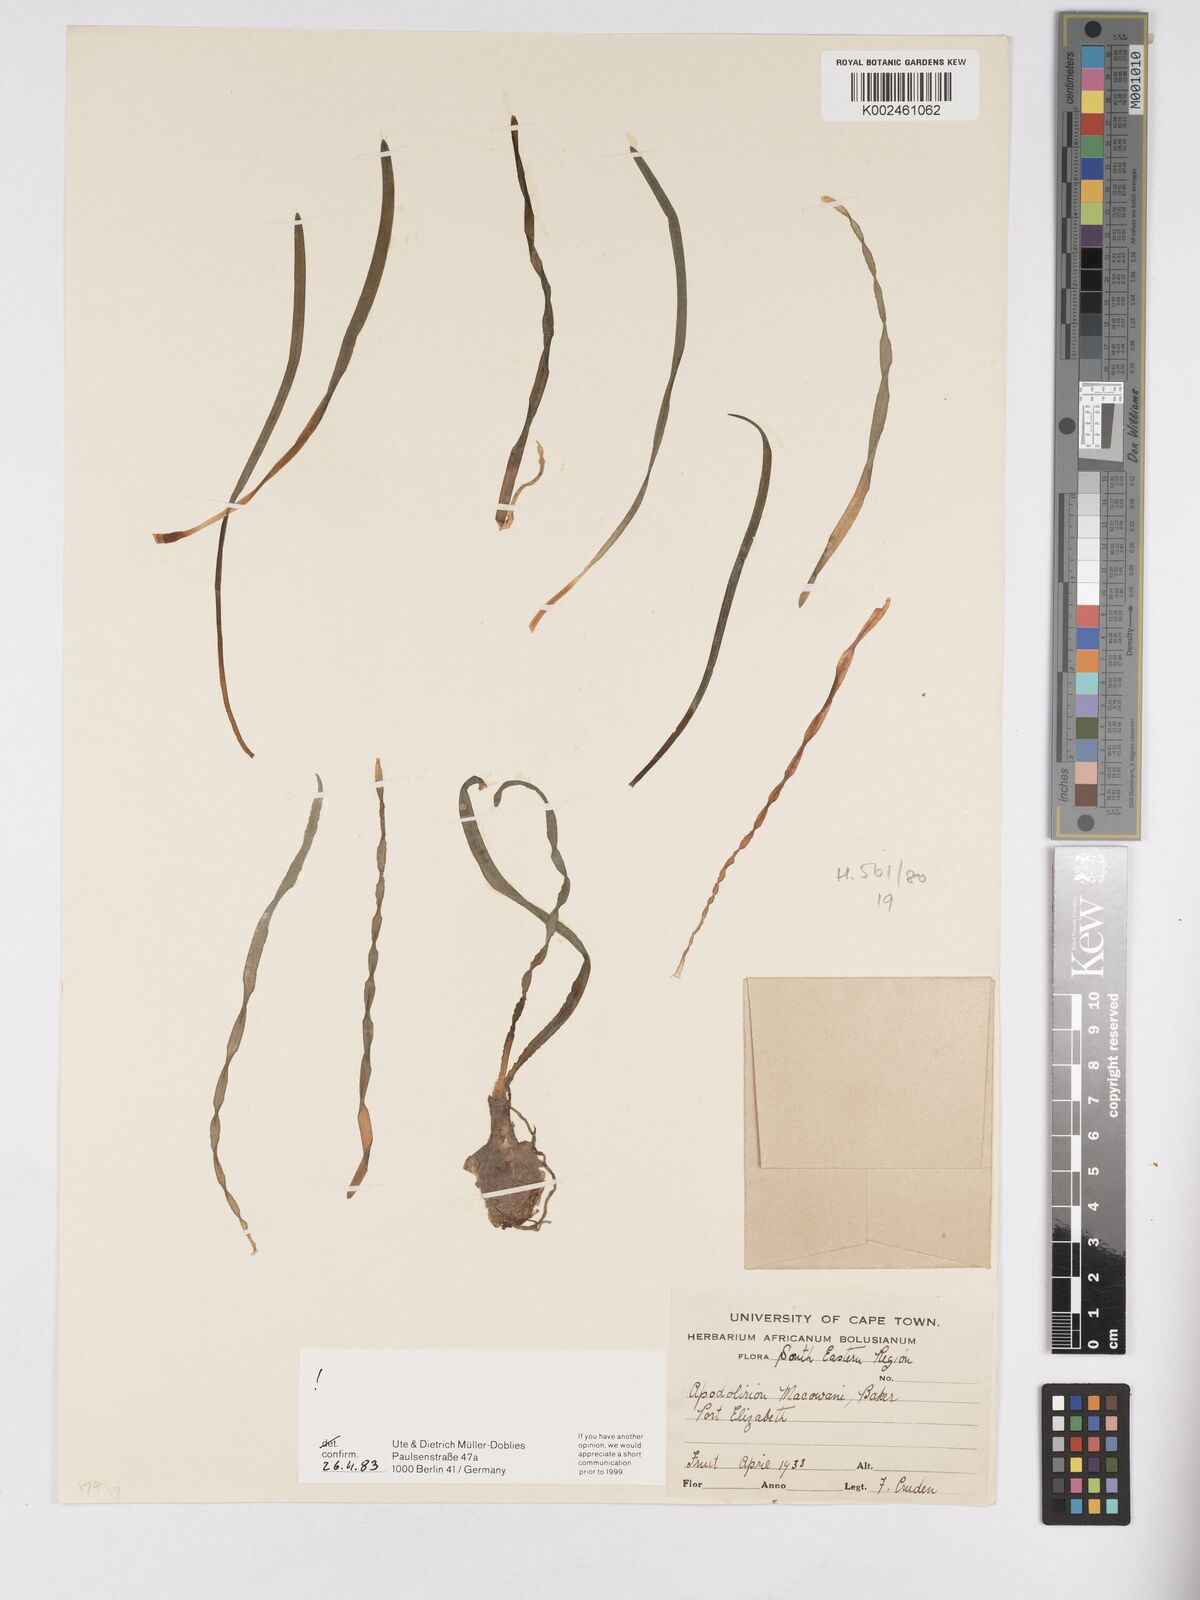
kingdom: Plantae
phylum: Tracheophyta
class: Liliopsida
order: Asparagales
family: Amaryllidaceae
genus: Apodolirion
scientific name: Apodolirion macowanii
